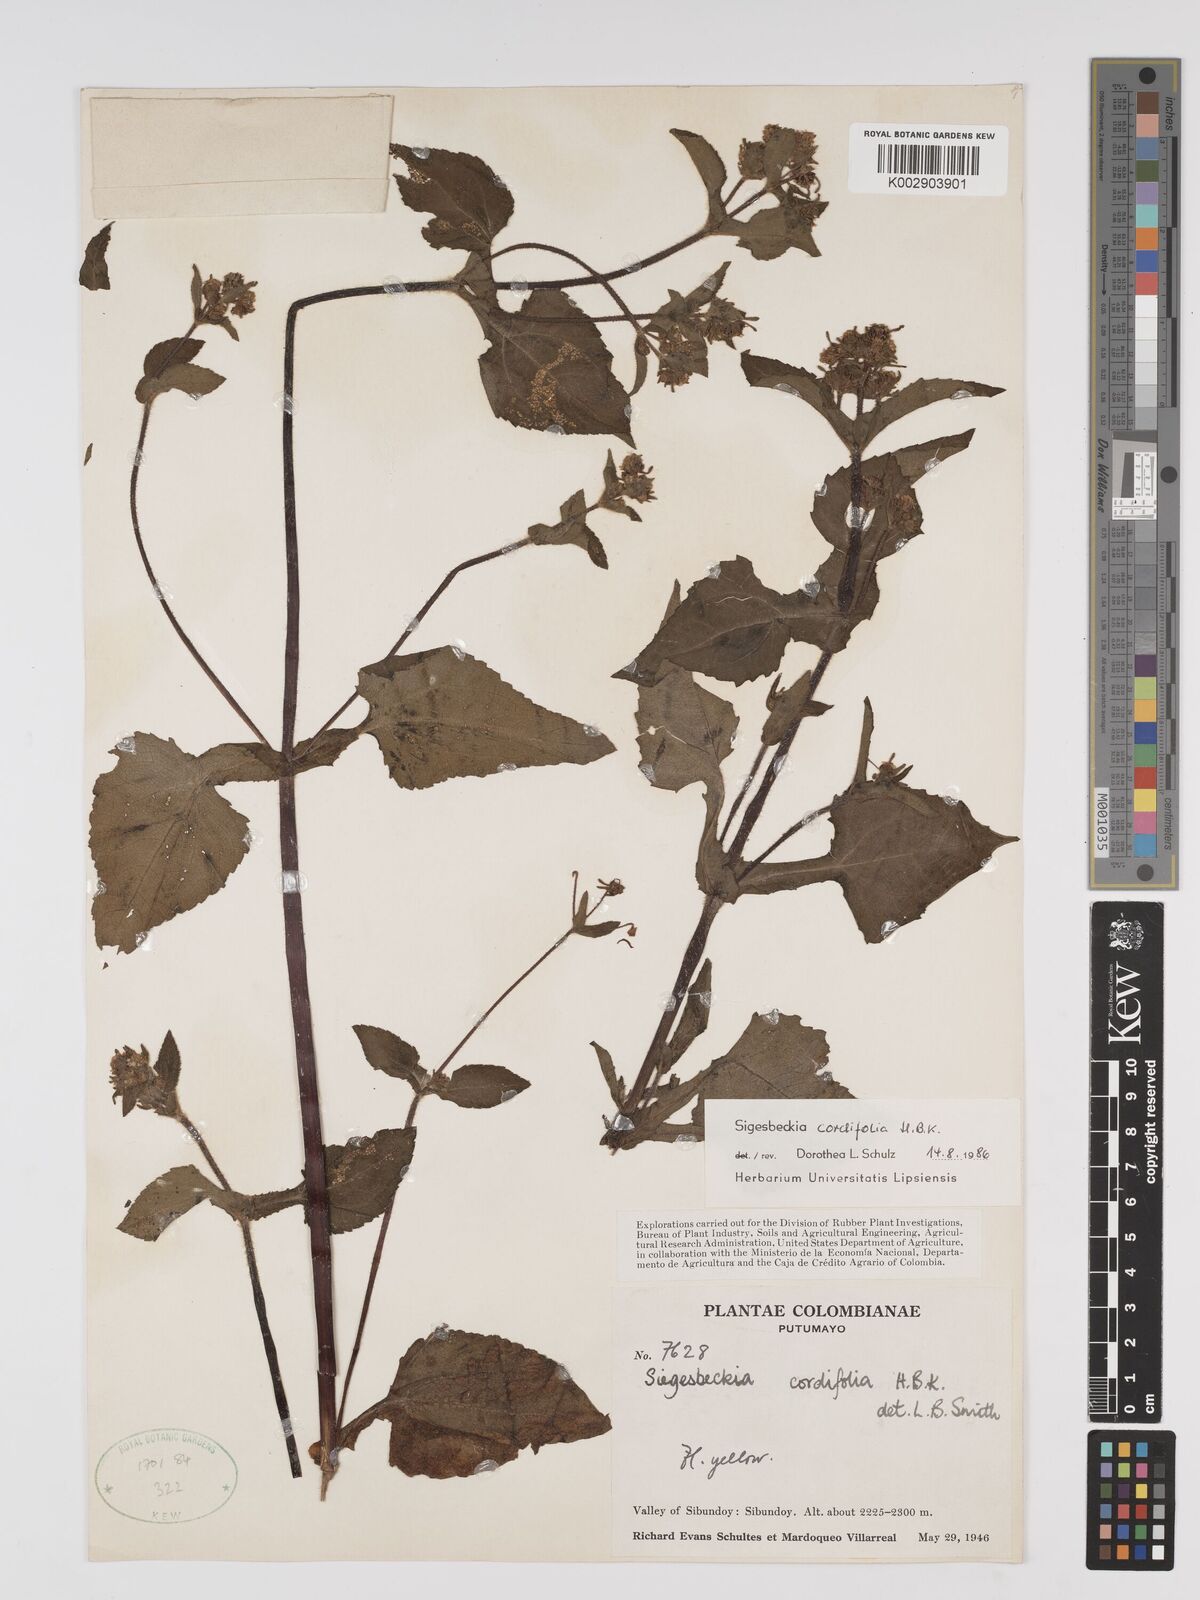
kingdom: Plantae
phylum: Tracheophyta
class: Magnoliopsida
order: Asterales
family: Asteraceae
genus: Sigesbeckia
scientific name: Sigesbeckia jorullensis
